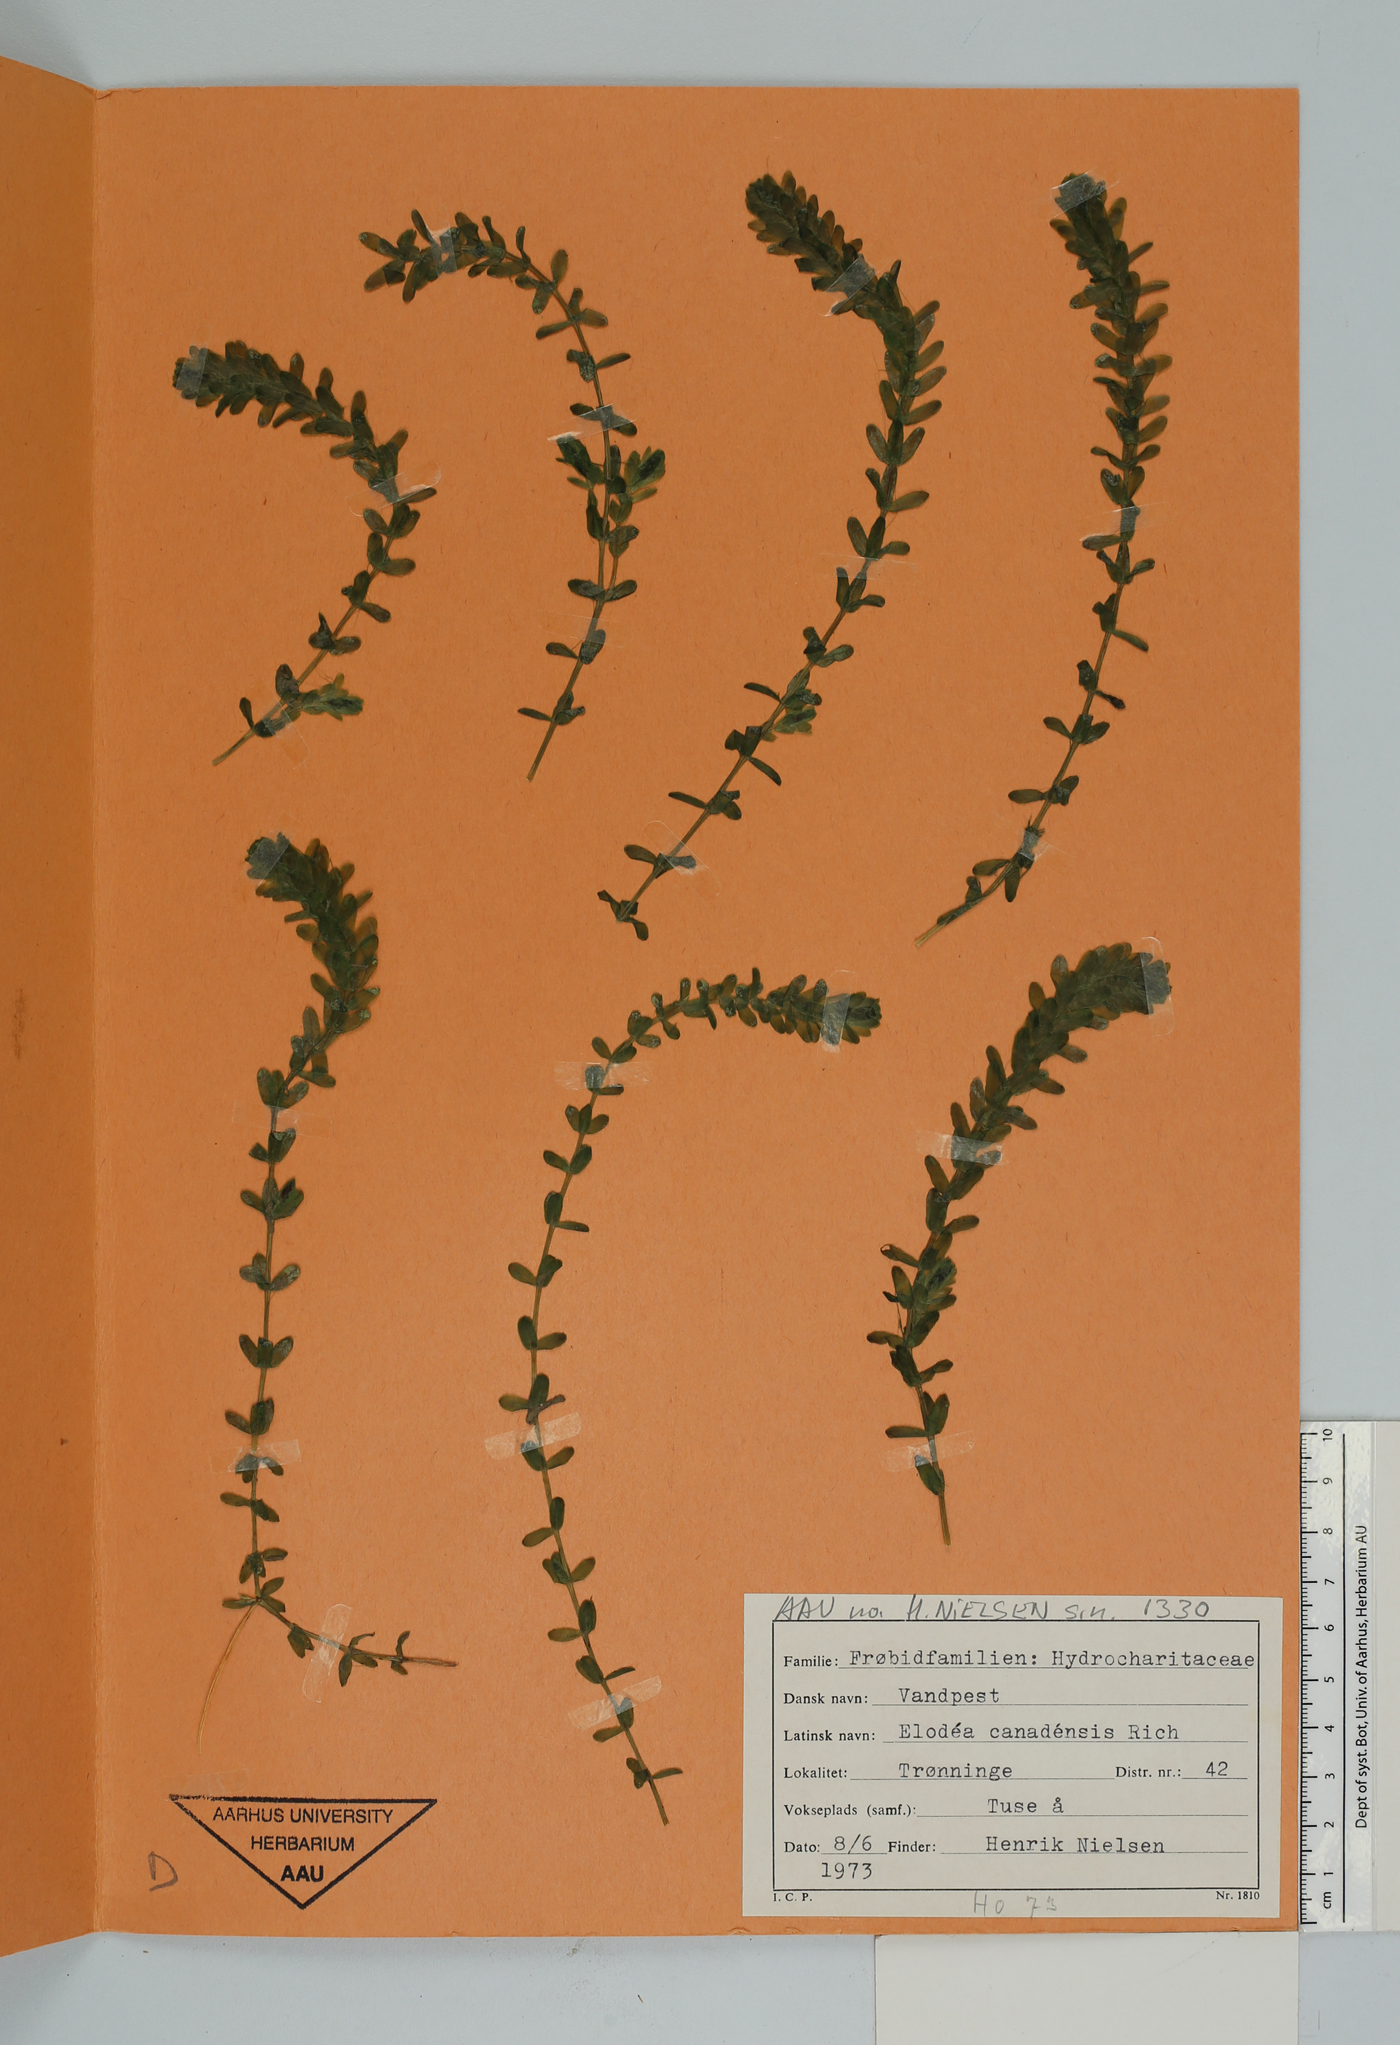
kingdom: Plantae
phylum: Tracheophyta
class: Liliopsida
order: Alismatales
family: Hydrocharitaceae
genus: Elodea
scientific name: Elodea canadensis
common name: Canadian waterweed
